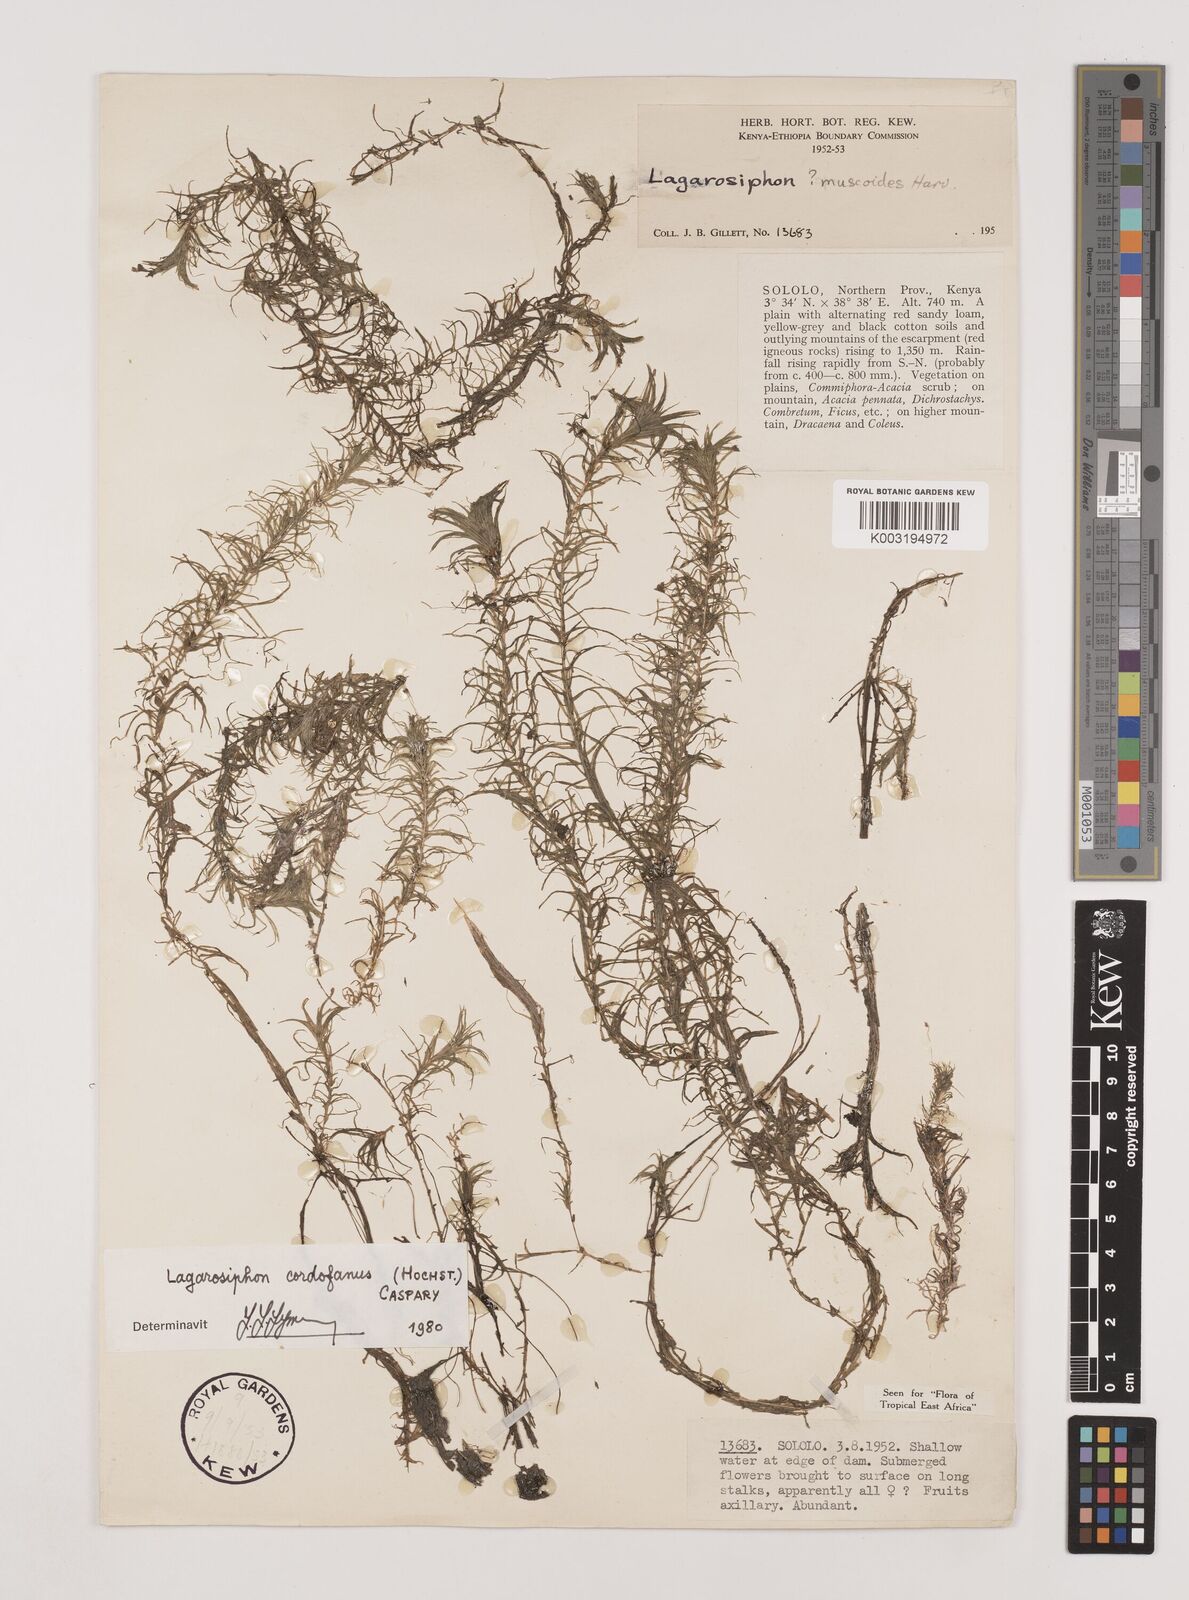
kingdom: Plantae
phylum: Tracheophyta
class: Liliopsida
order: Alismatales
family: Hydrocharitaceae
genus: Lagarosiphon
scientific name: Lagarosiphon cordofanus
